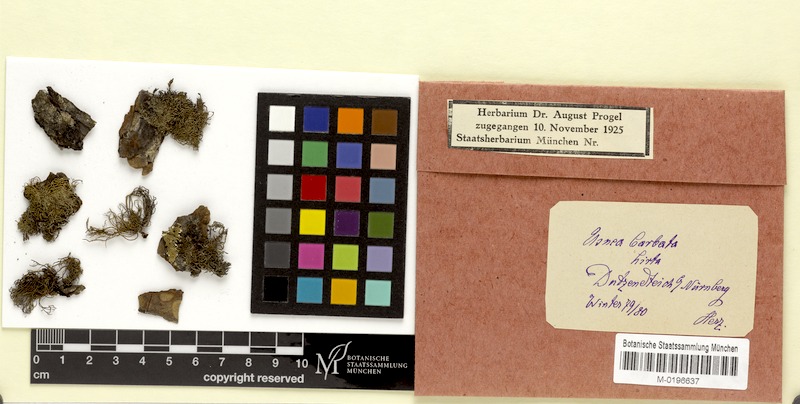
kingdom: Fungi
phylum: Ascomycota
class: Lecanoromycetes
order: Lecanorales
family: Parmeliaceae
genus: Usnea
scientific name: Usnea hirta
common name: Bristly beard lichen
